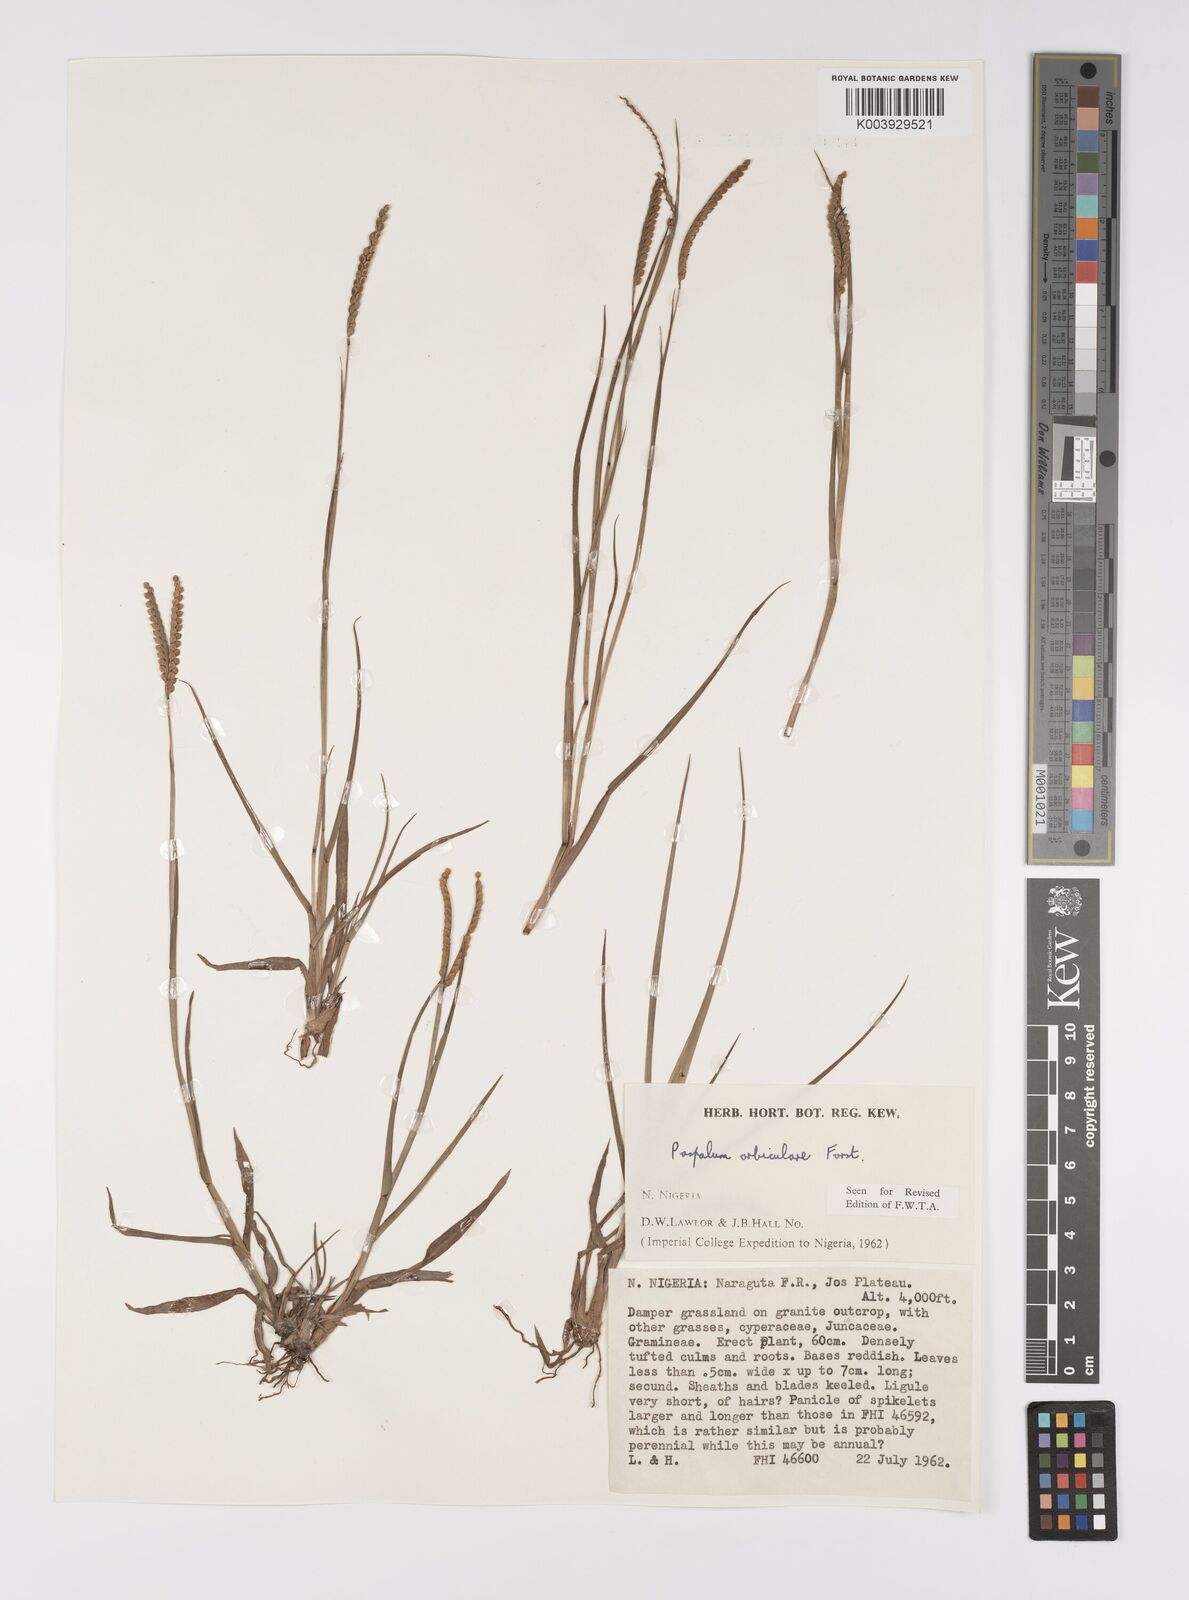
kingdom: Plantae
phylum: Tracheophyta
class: Liliopsida
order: Poales
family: Poaceae
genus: Paspalum
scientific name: Paspalum scrobiculatum
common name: Kodo millet
